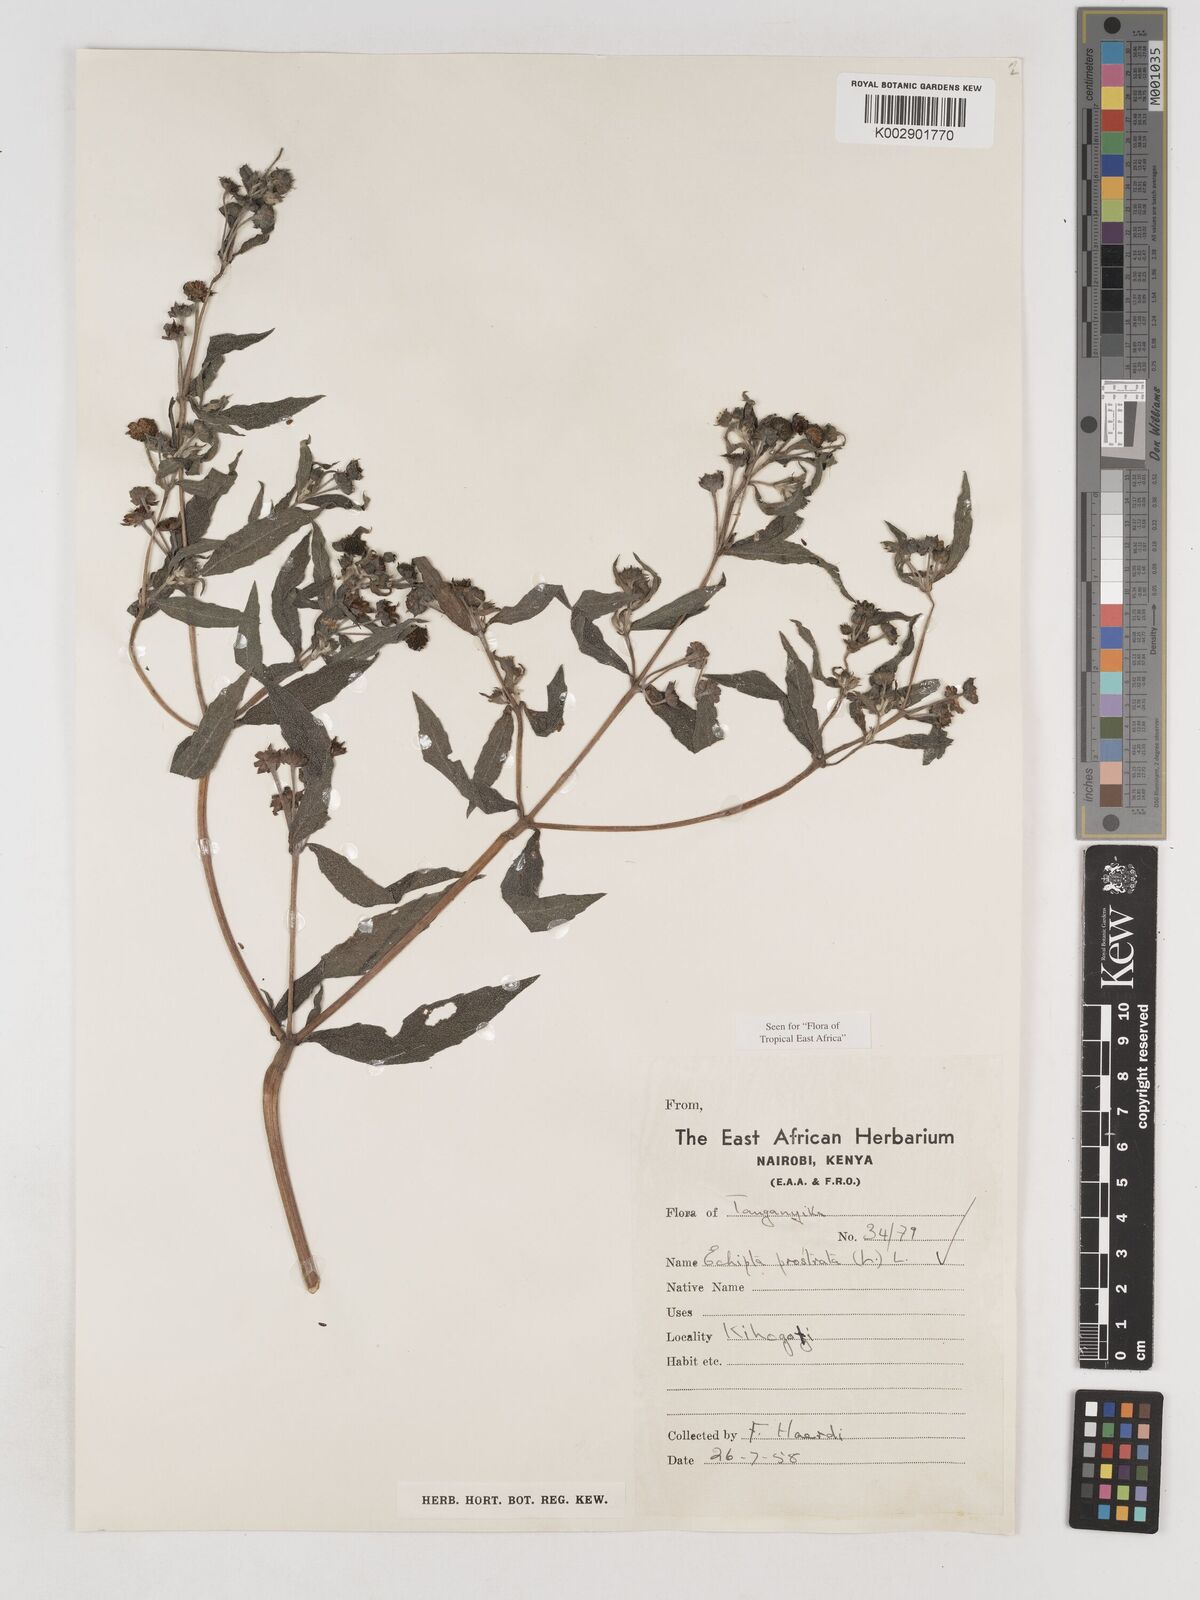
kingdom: Plantae
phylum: Tracheophyta
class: Magnoliopsida
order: Asterales
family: Asteraceae
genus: Eclipta
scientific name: Eclipta alba
